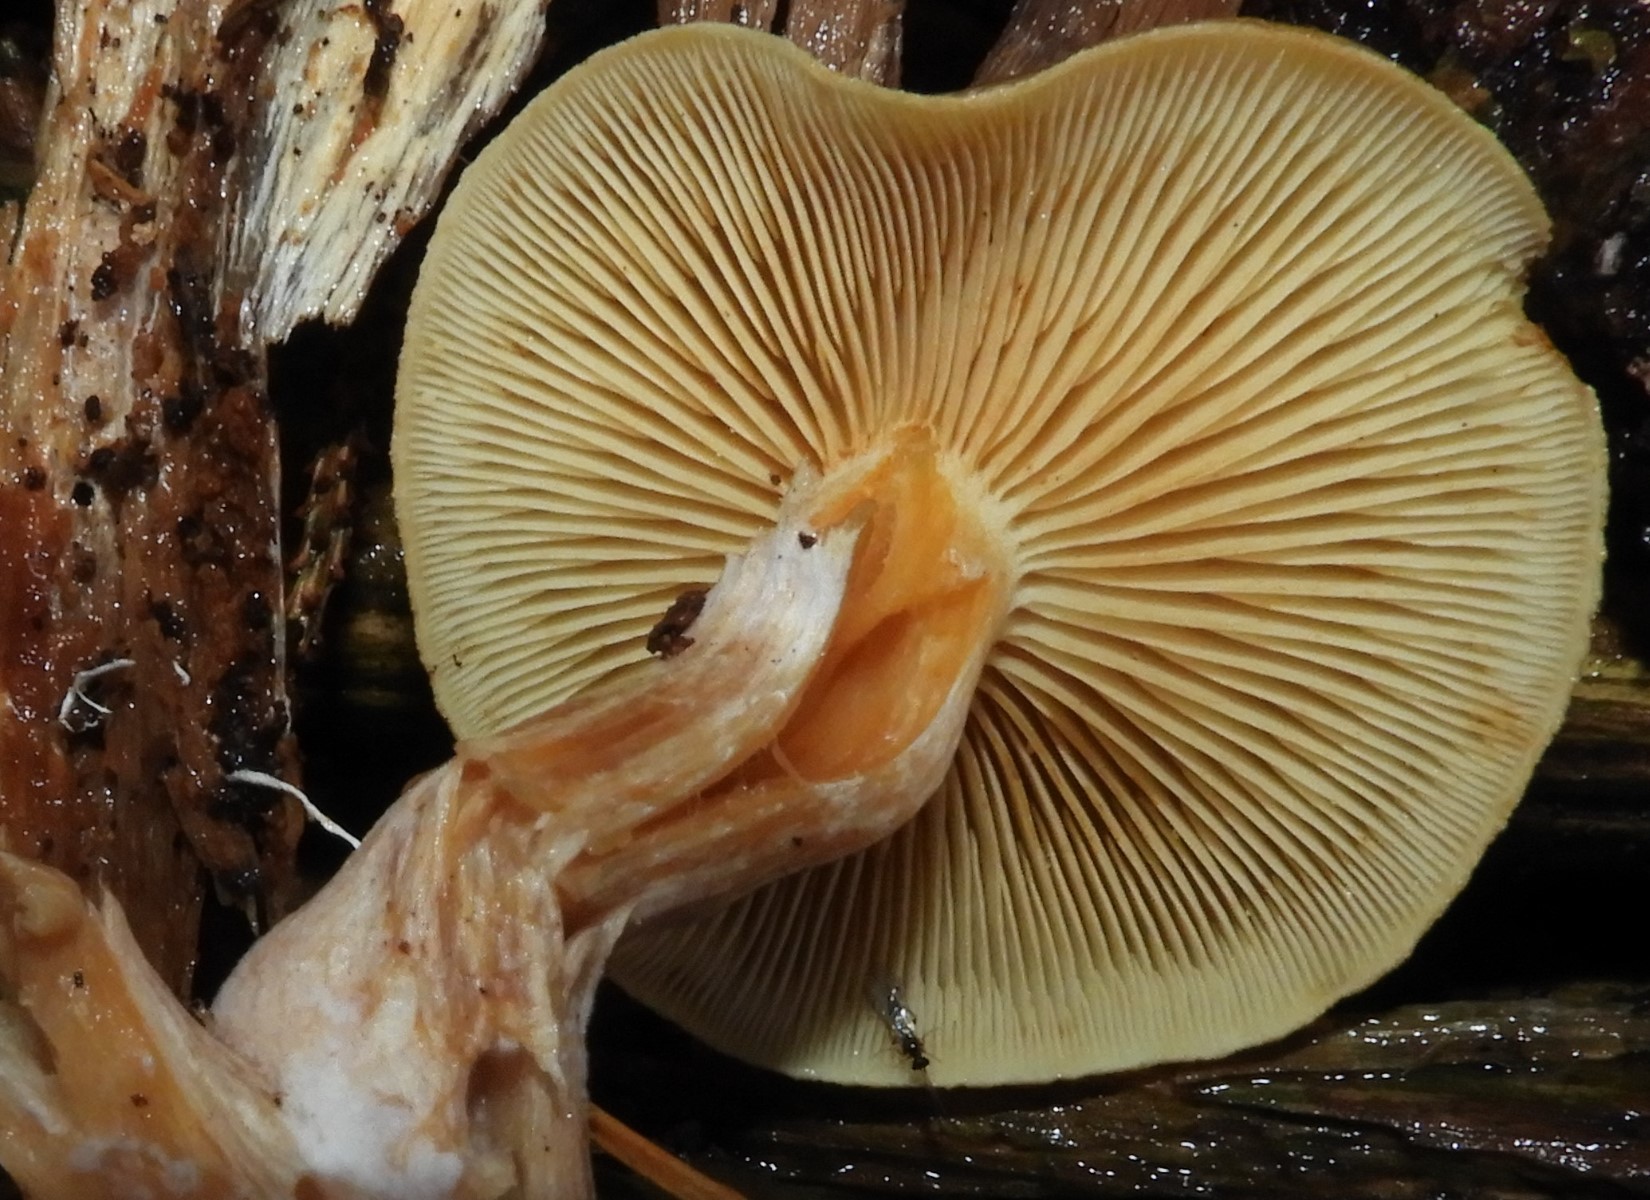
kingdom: Fungi
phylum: Basidiomycota
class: Agaricomycetes
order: Agaricales
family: Hymenogastraceae
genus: Gymnopilus
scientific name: Gymnopilus penetrans
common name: plettet flammehat
